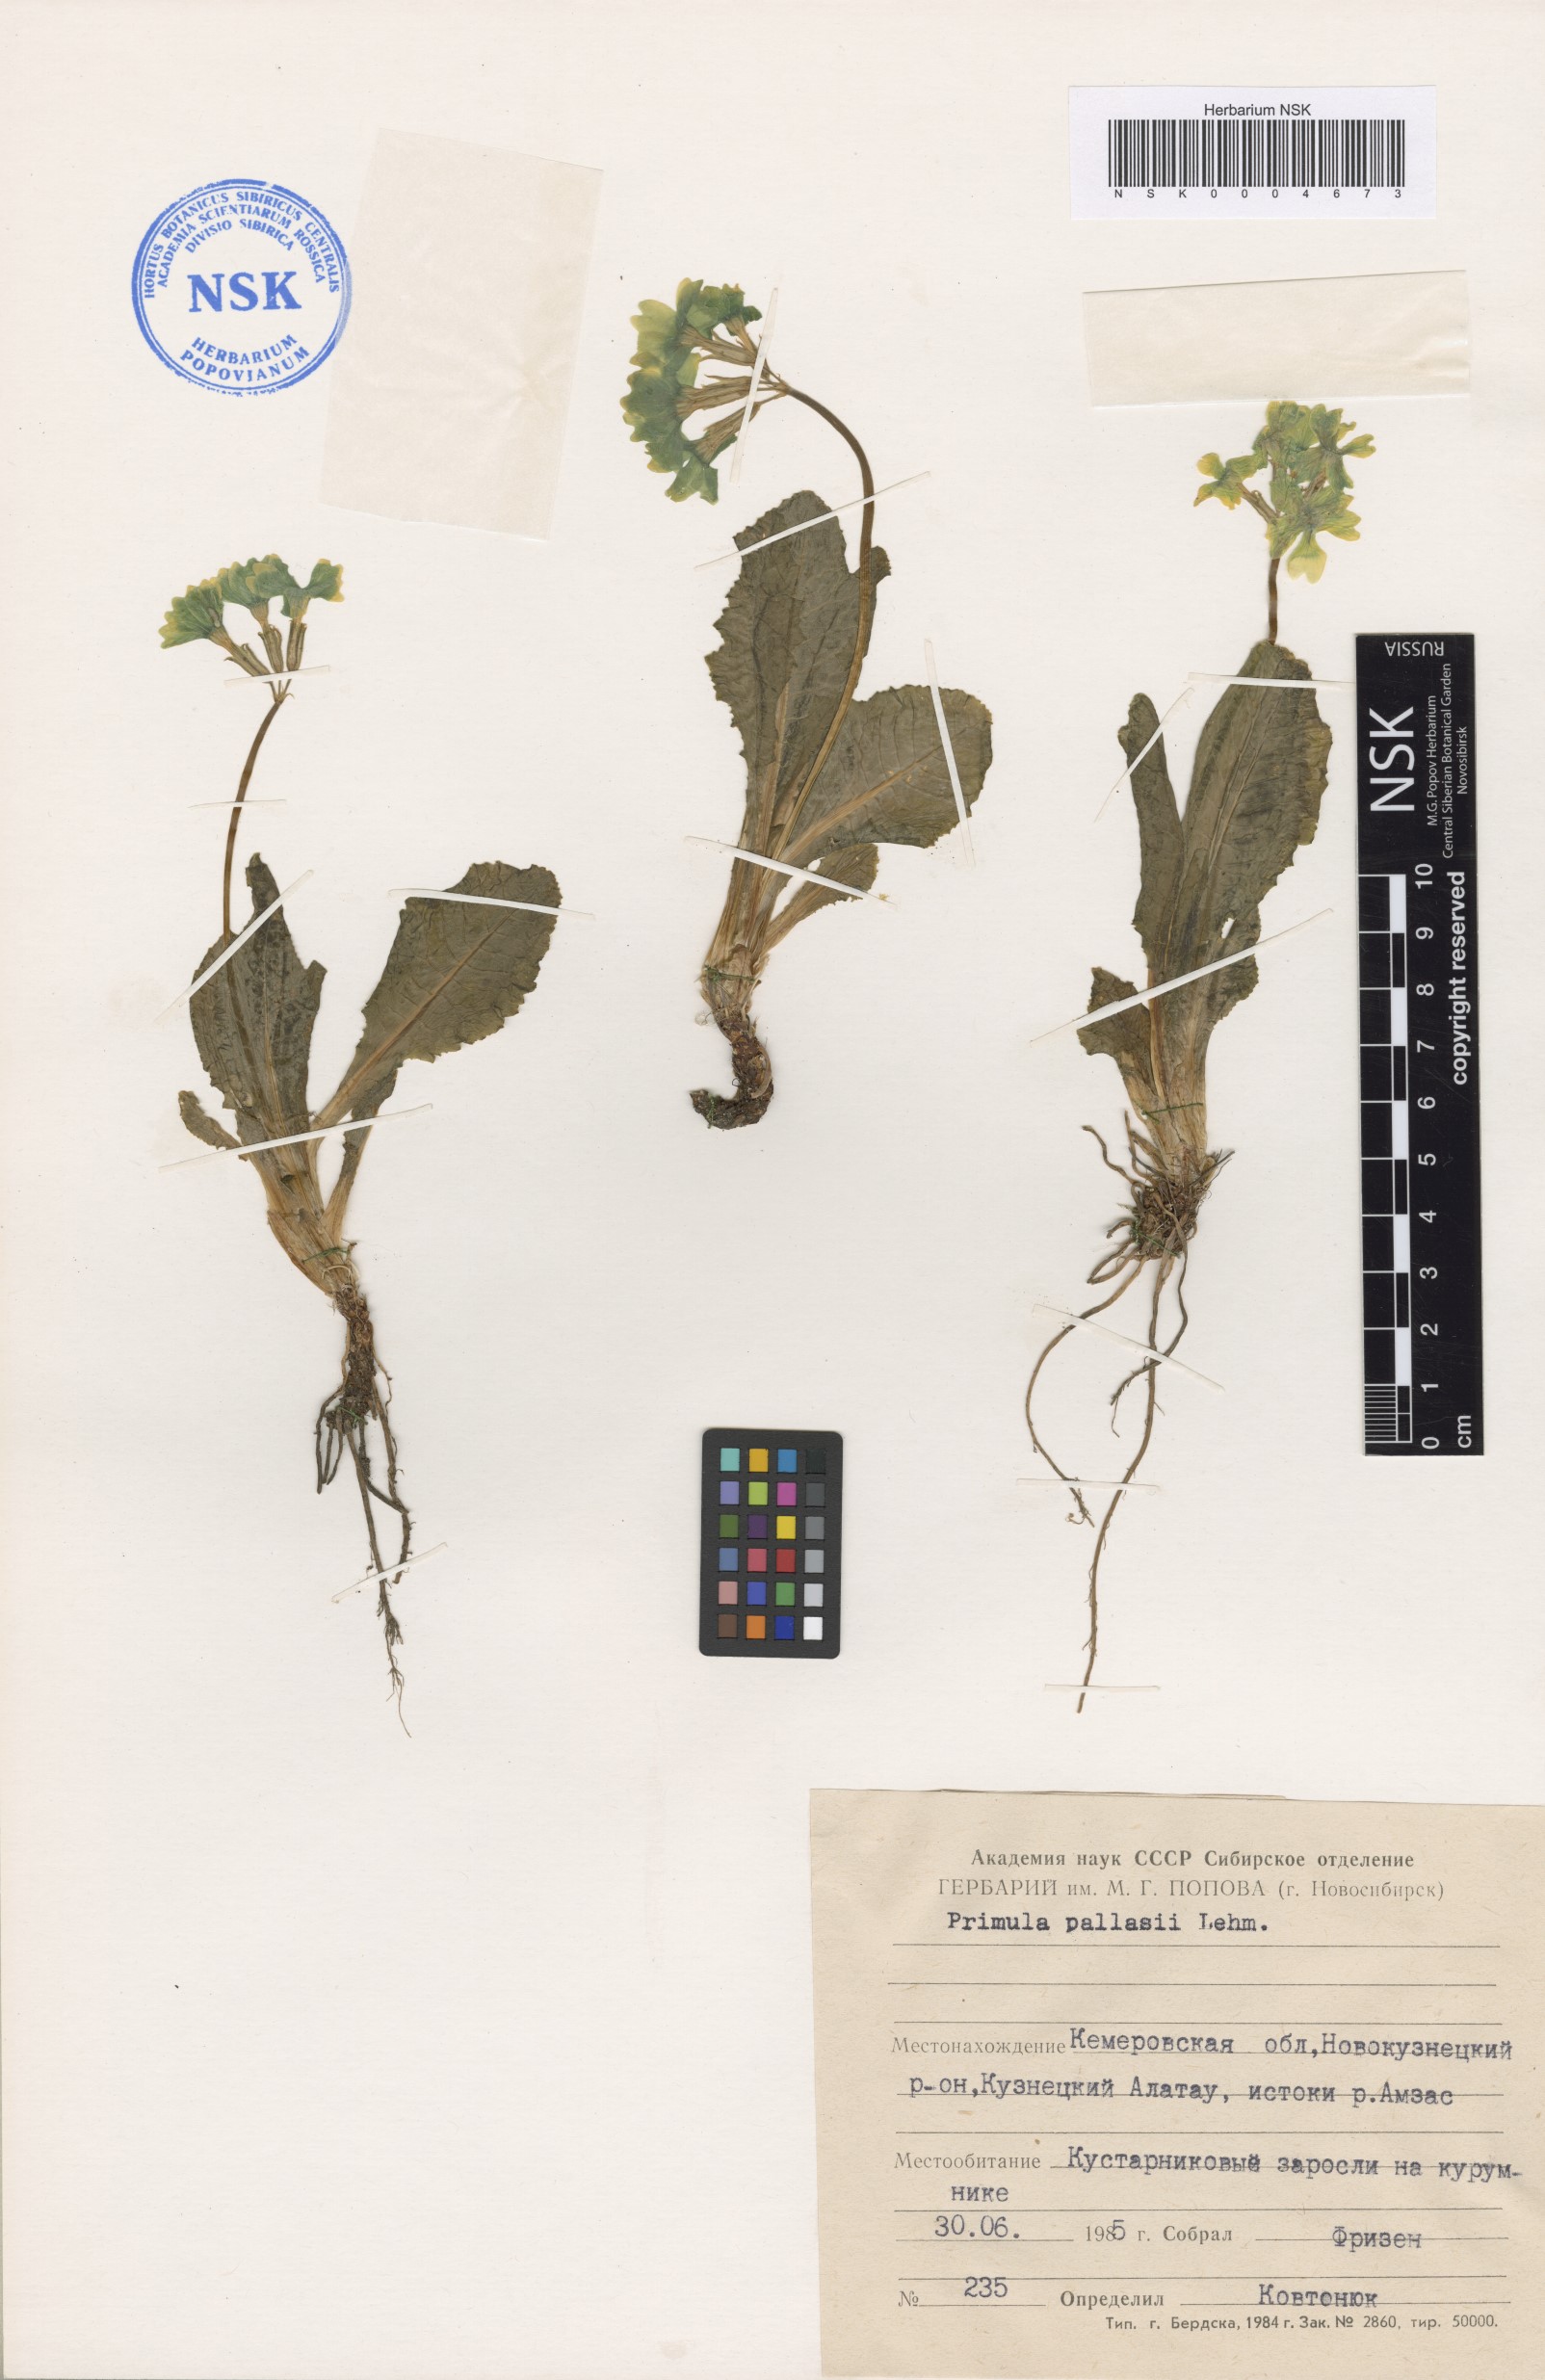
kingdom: Plantae
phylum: Tracheophyta
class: Magnoliopsida
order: Ericales
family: Primulaceae
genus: Primula
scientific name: Primula elatior
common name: Oxlip
